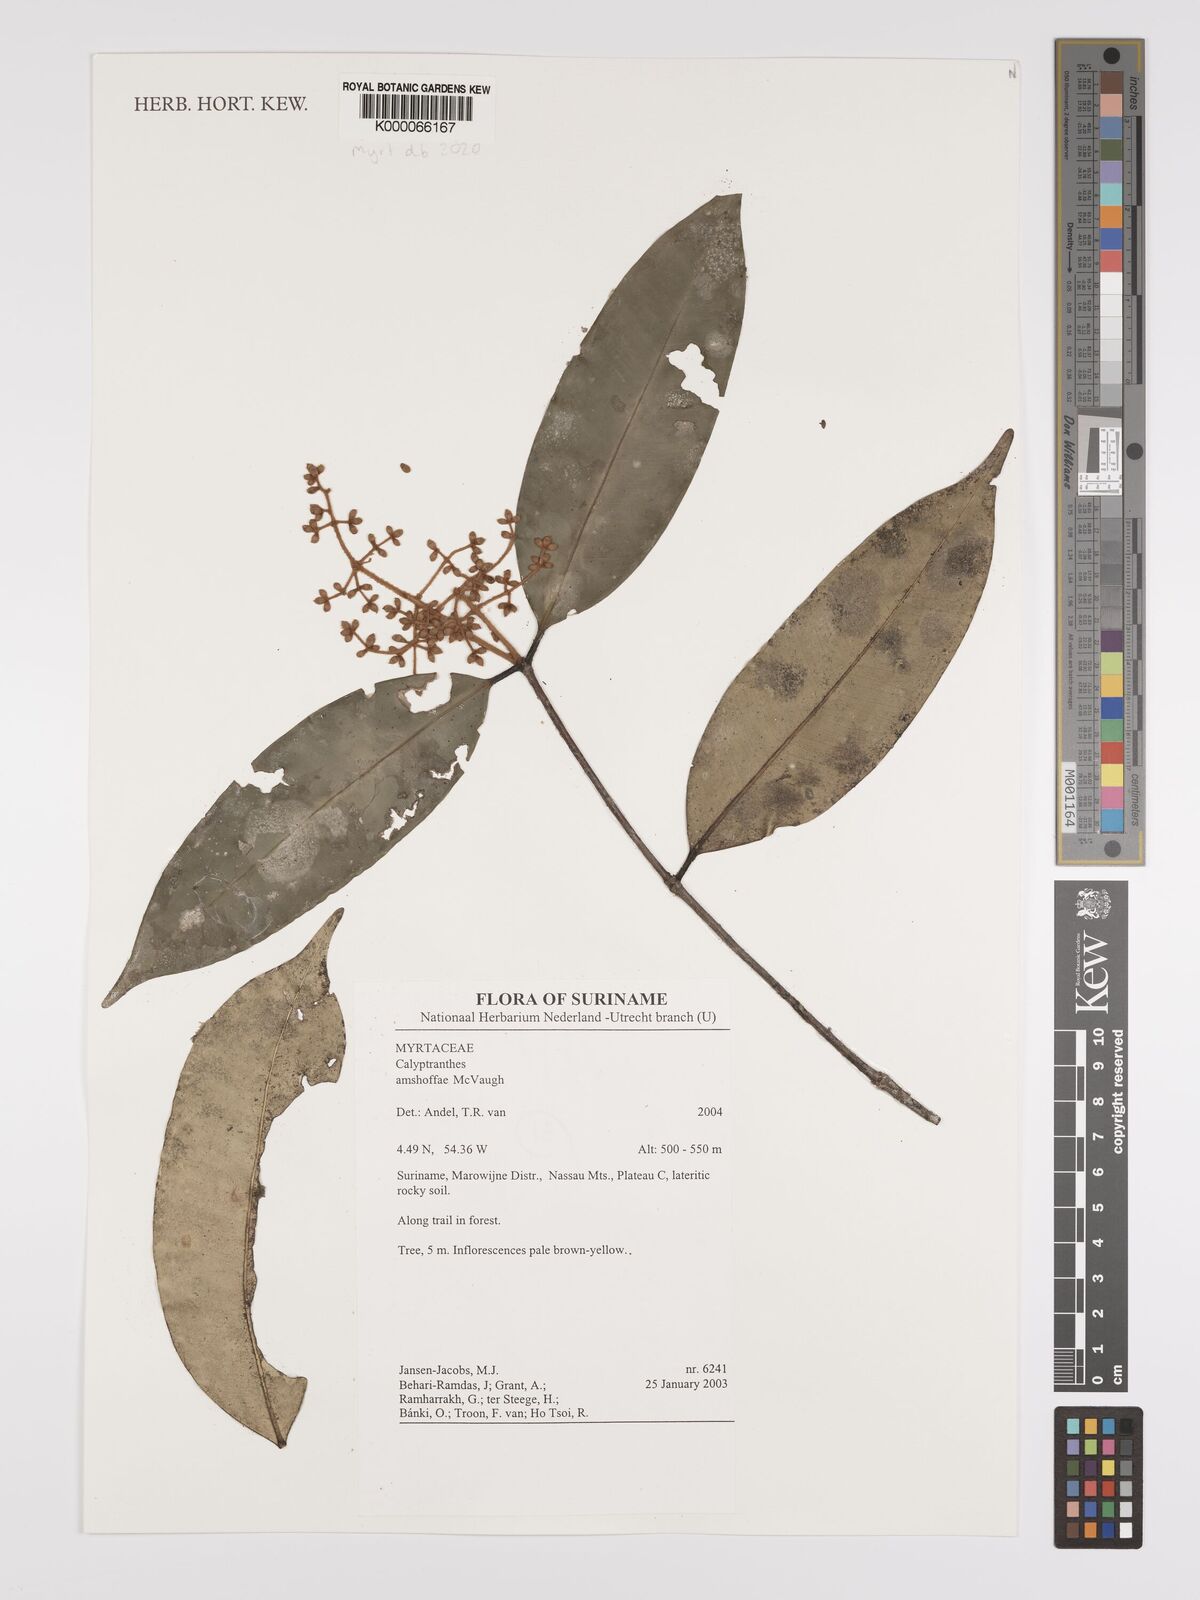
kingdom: Plantae
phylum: Tracheophyta
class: Magnoliopsida
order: Myrtales
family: Myrtaceae
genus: Myrcia
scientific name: Myrcia amshoffae
